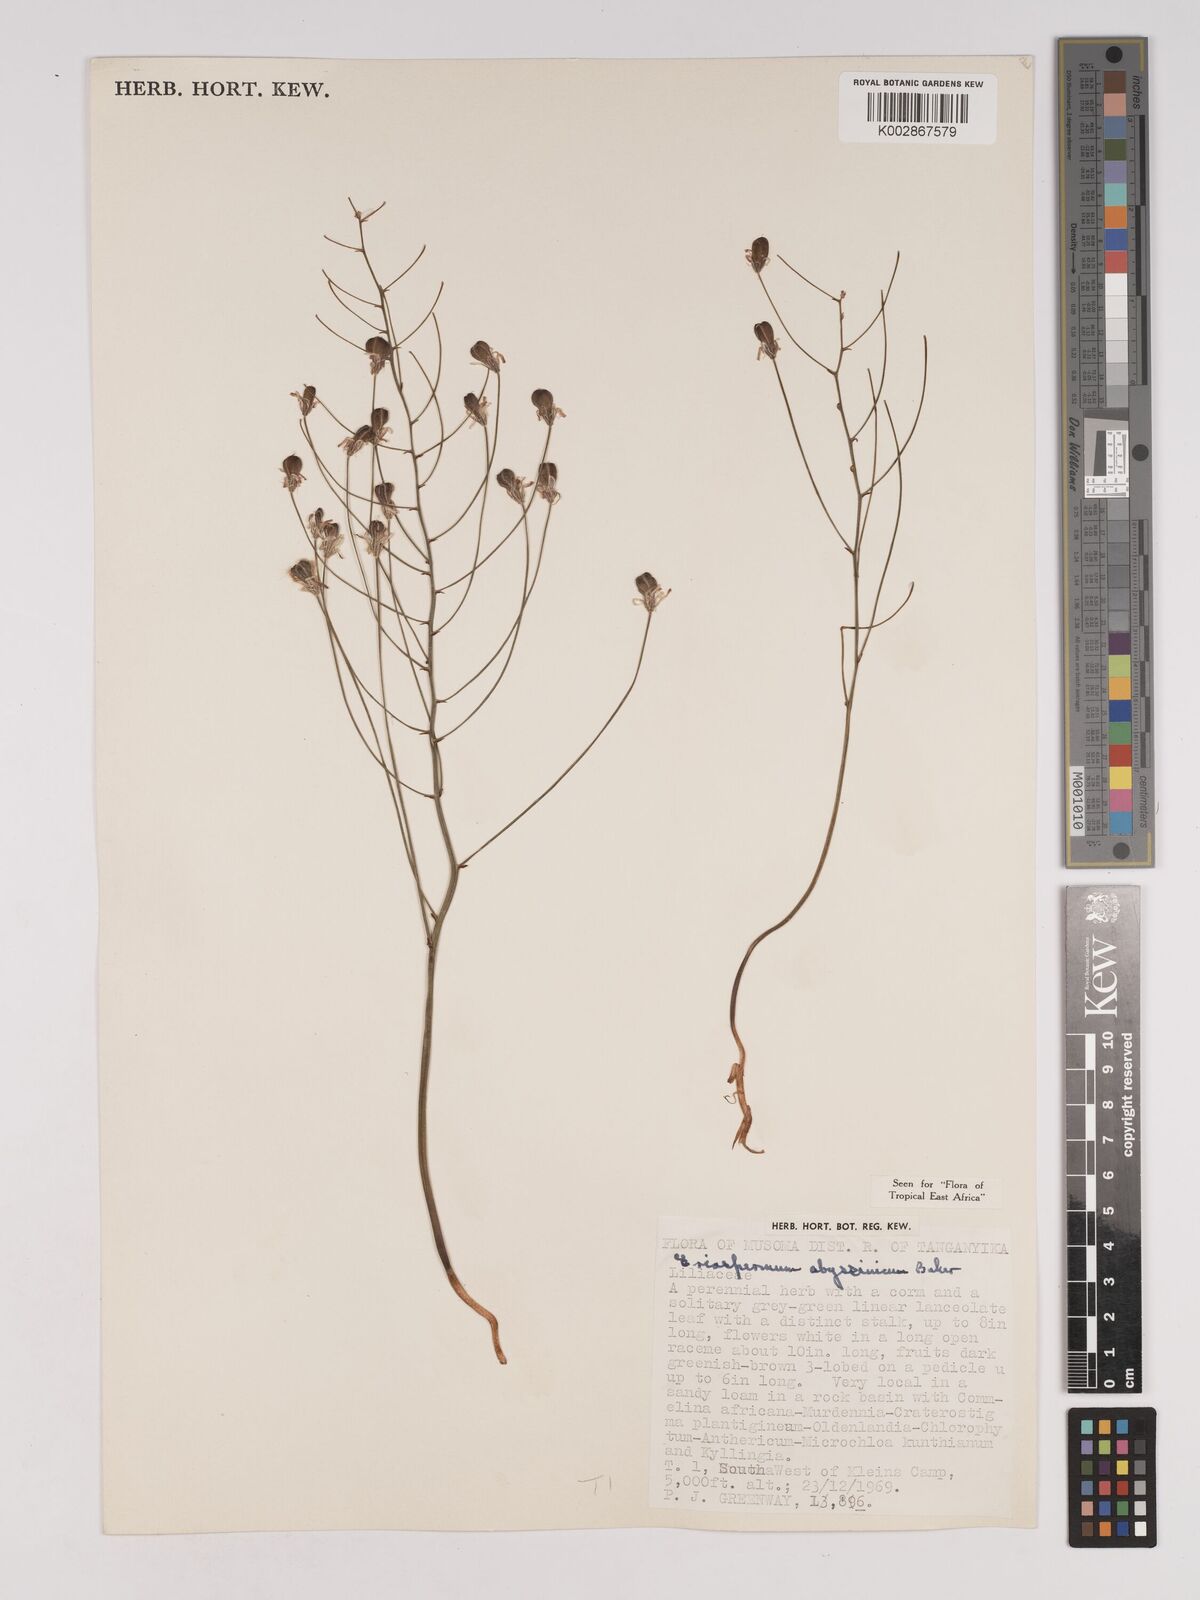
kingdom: Plantae
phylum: Tracheophyta
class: Liliopsida
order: Asparagales
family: Asparagaceae
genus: Eriospermum
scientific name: Eriospermum abyssinicum
